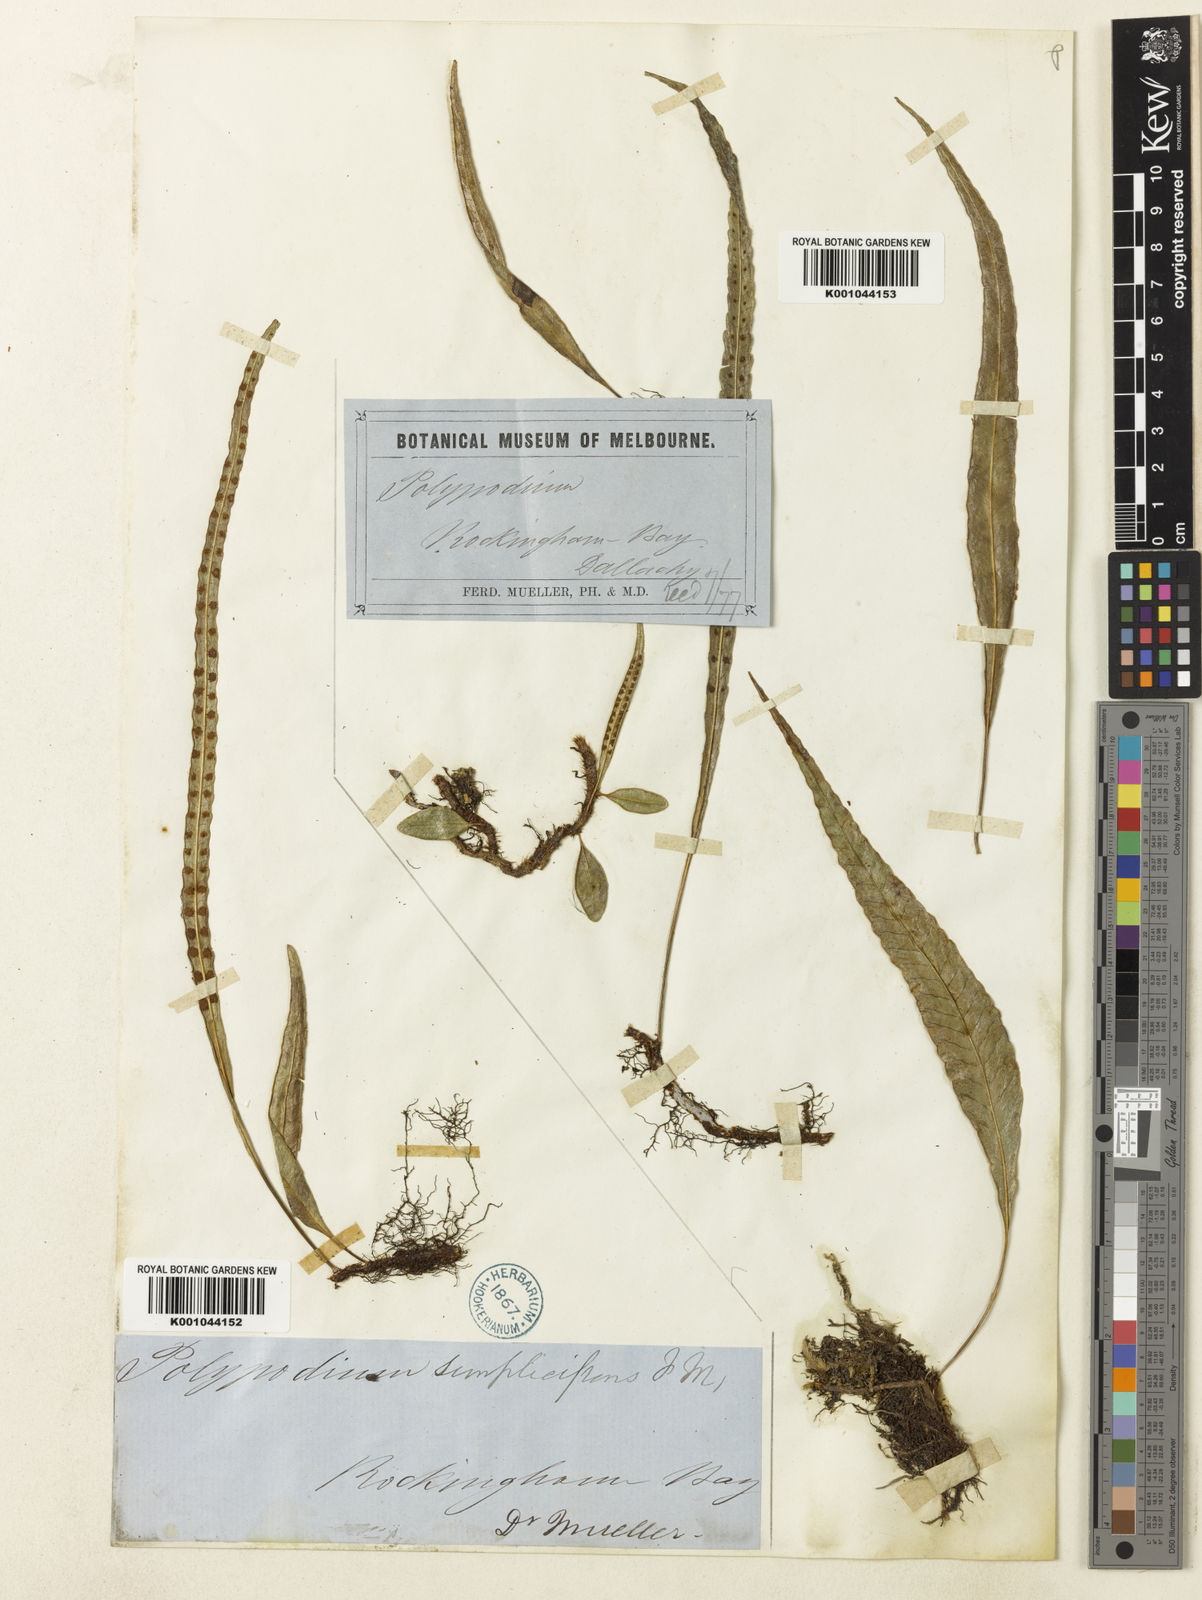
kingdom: Plantae
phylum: Tracheophyta
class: Polypodiopsida
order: Polypodiales
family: Polypodiaceae
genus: Selliguea
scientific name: Selliguea simplicissima
